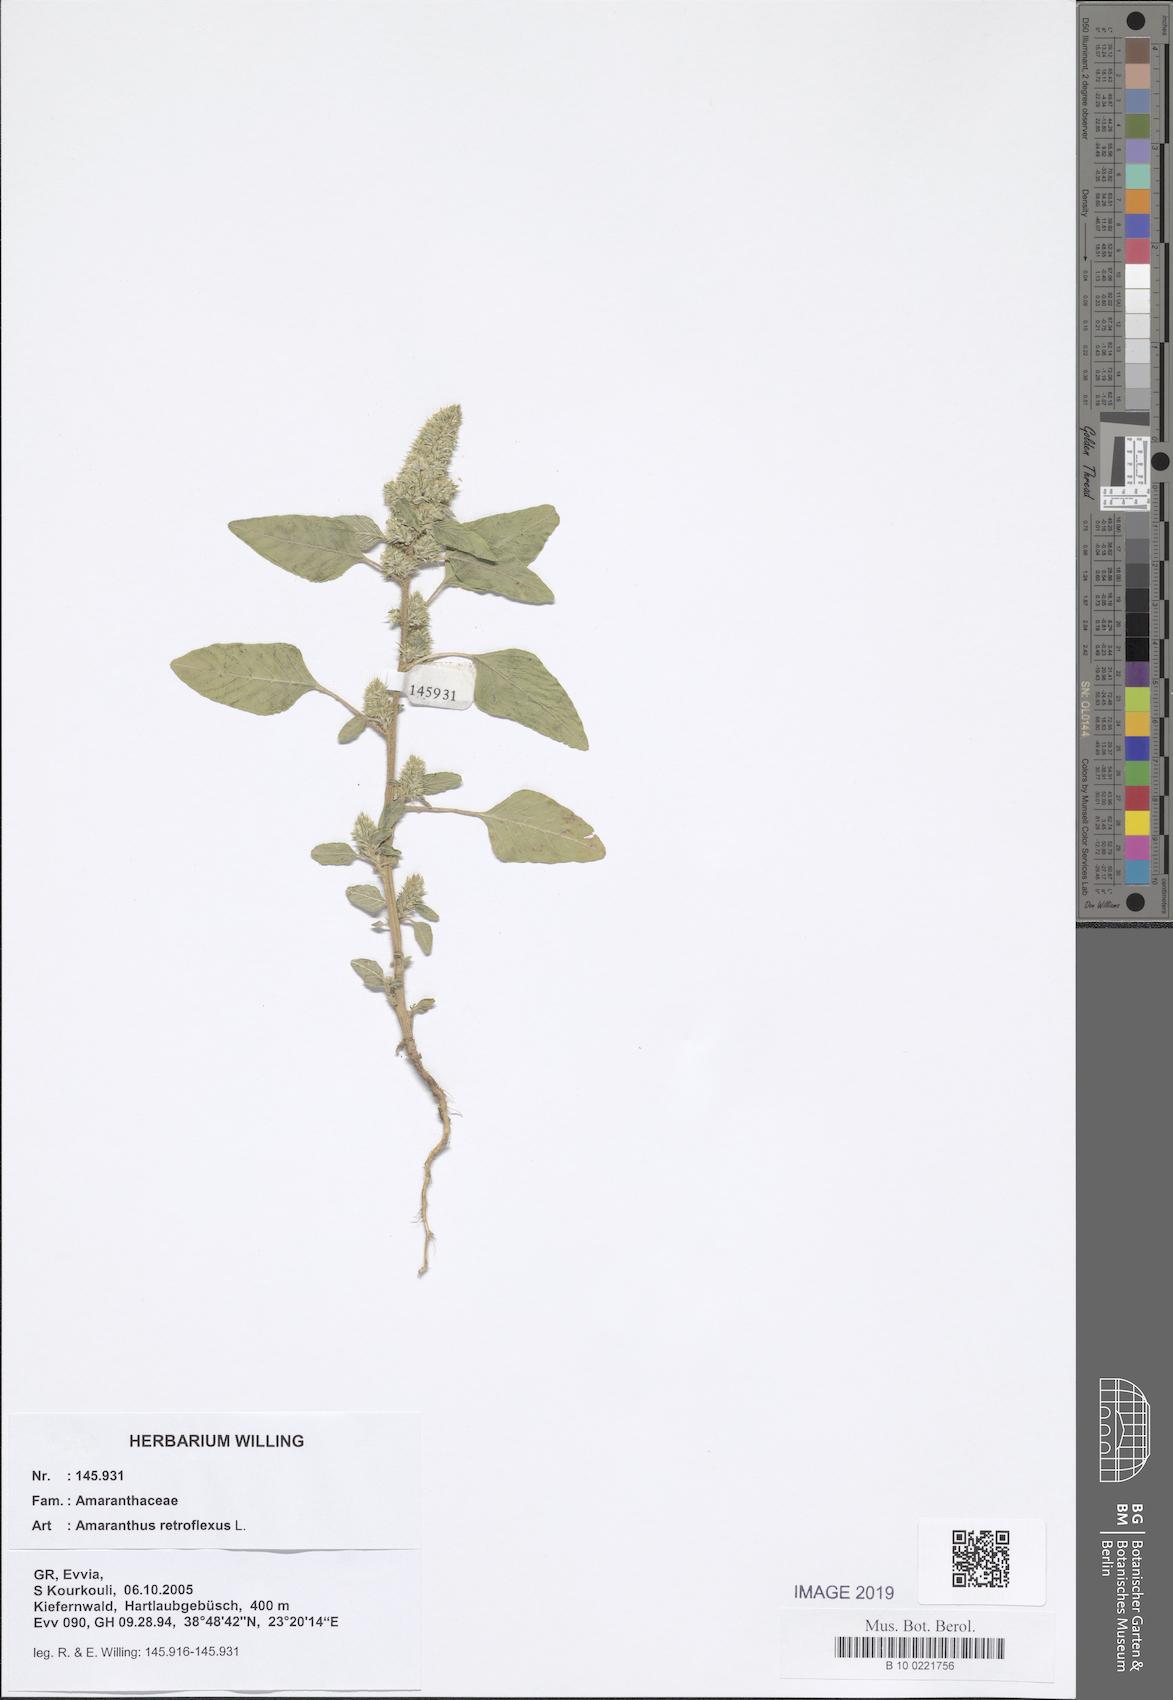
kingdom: Plantae
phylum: Tracheophyta
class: Magnoliopsida
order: Caryophyllales
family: Amaranthaceae
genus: Amaranthus
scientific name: Amaranthus retroflexus
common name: Redroot amaranth
